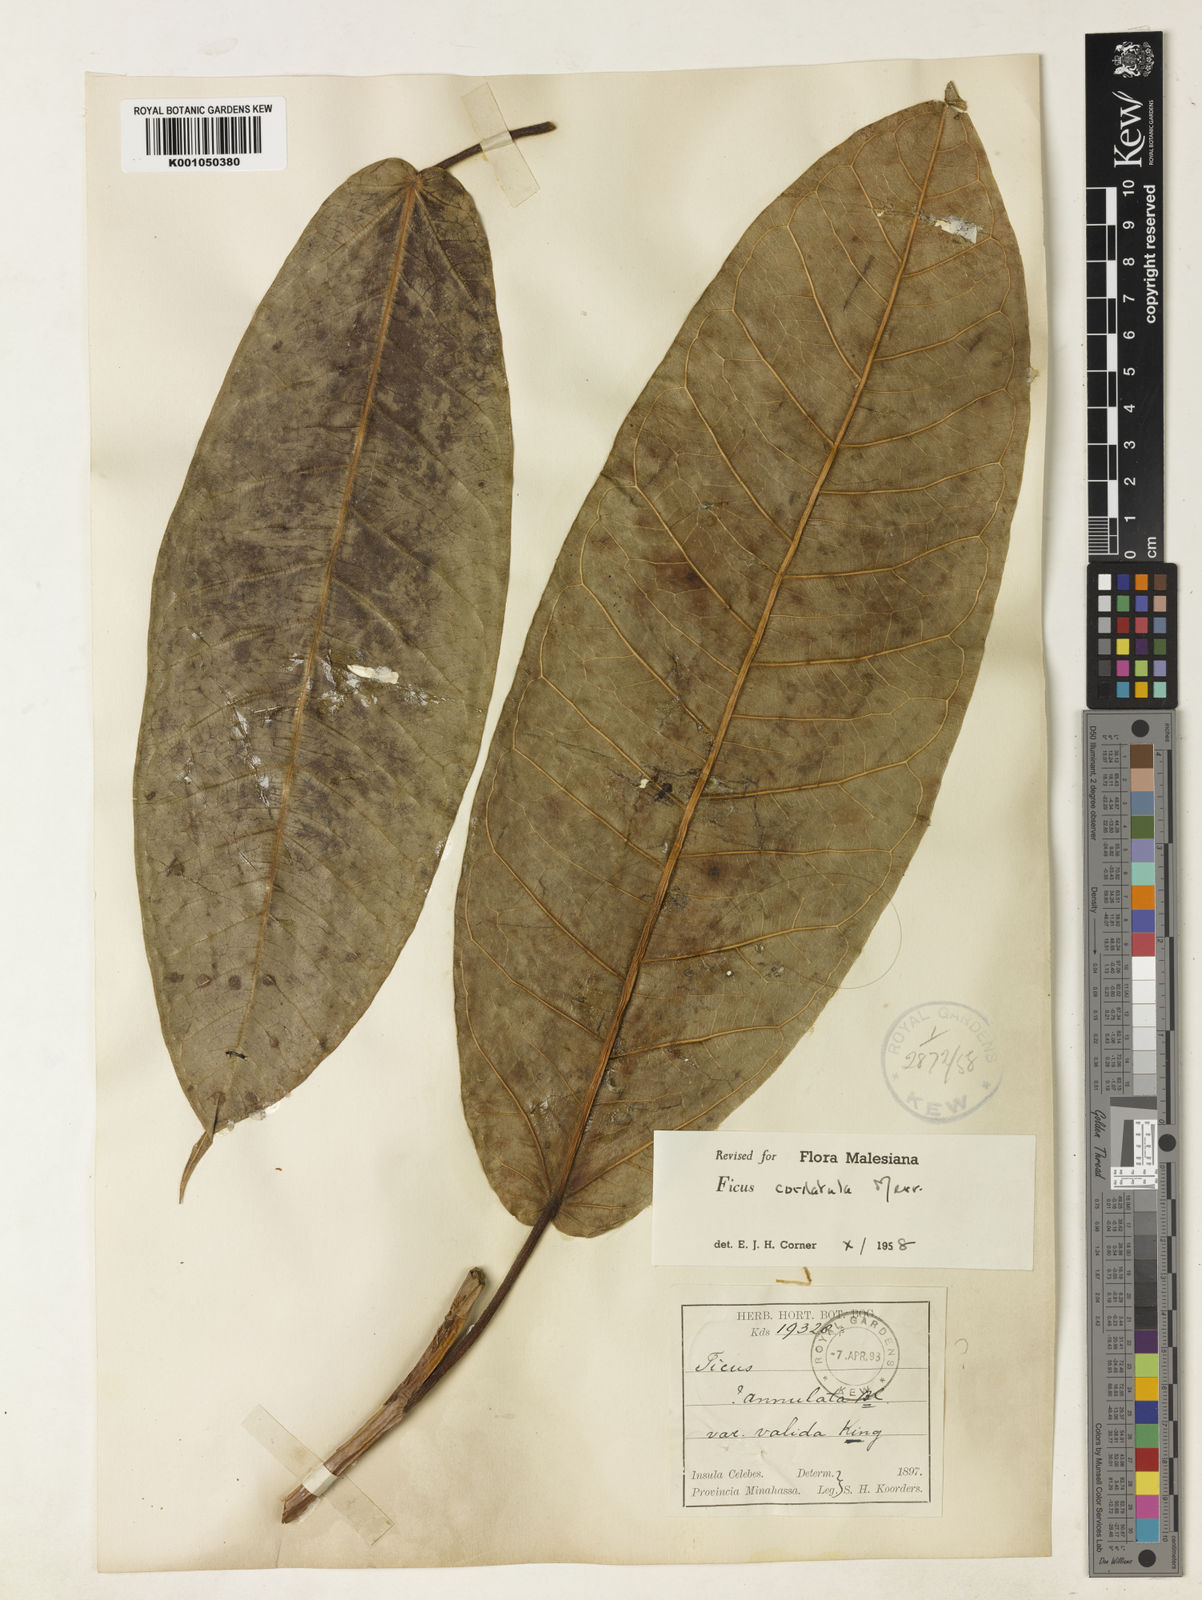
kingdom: Plantae
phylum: Tracheophyta
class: Magnoliopsida
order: Rosales
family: Moraceae
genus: Ficus
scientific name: Ficus cordatula
